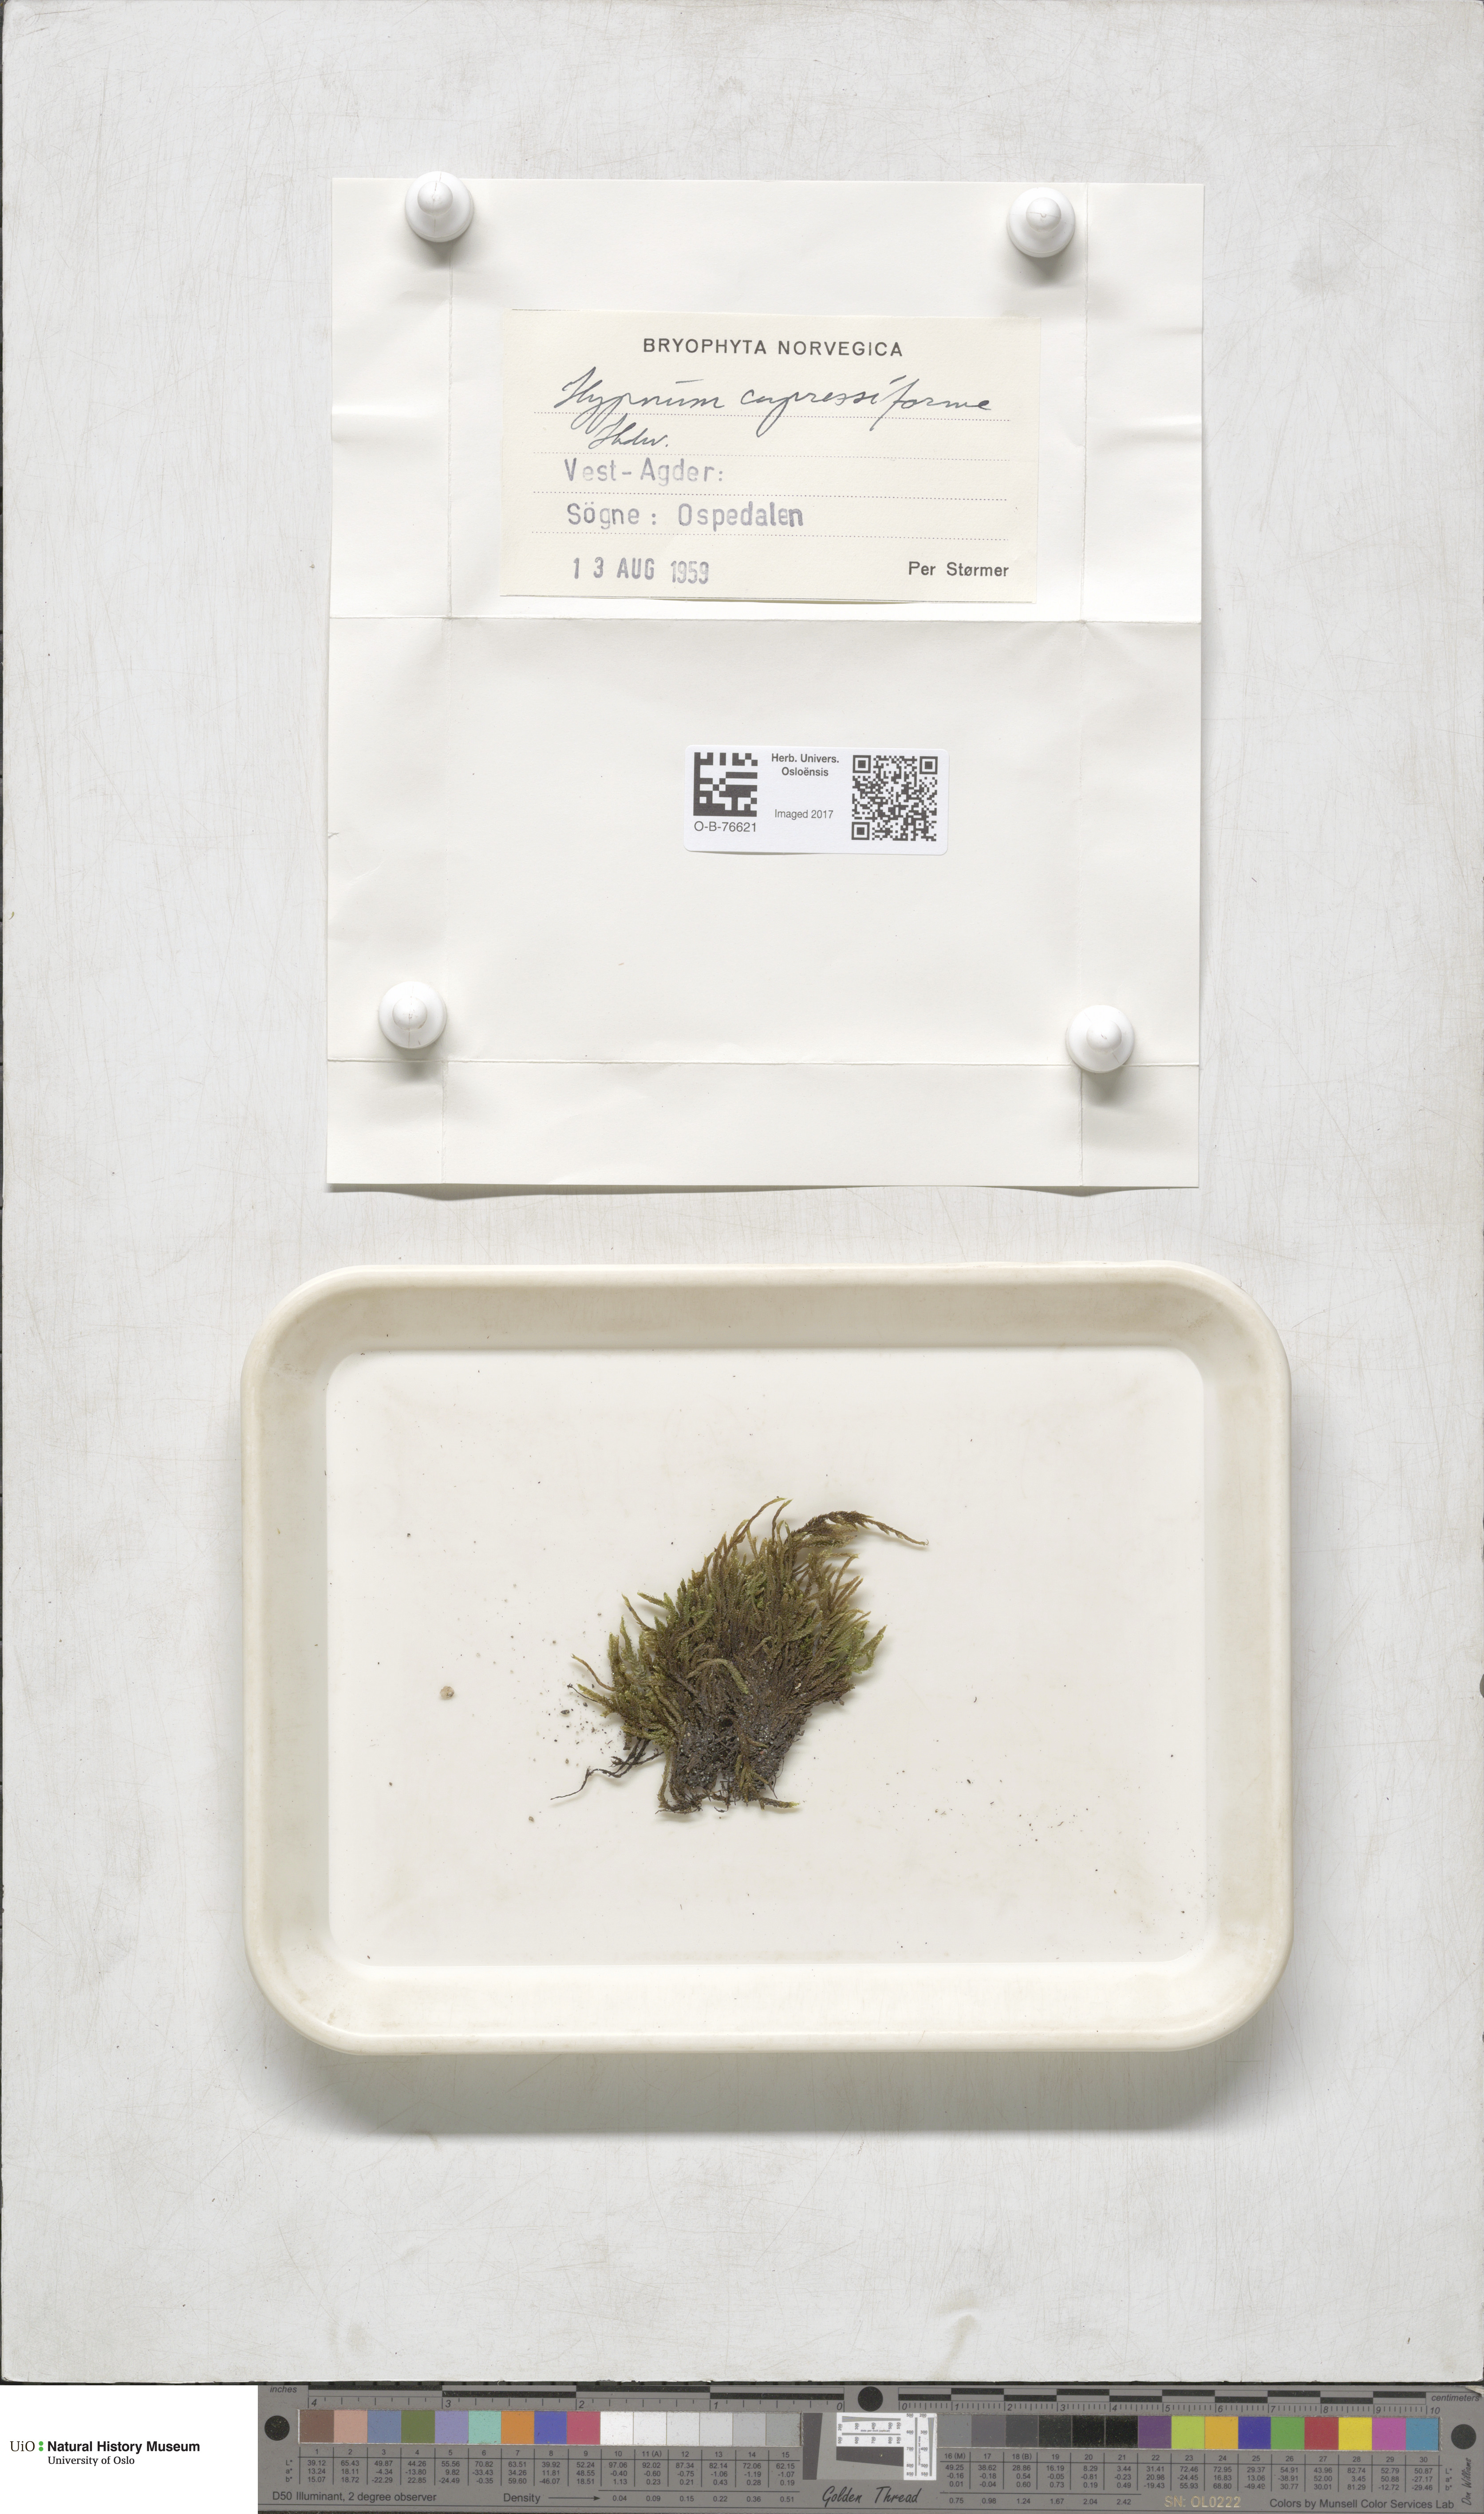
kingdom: Plantae
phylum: Bryophyta
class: Bryopsida
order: Hypnales
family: Hypnaceae
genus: Hypnum
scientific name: Hypnum cupressiforme
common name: Cypress-leaved plait-moss
